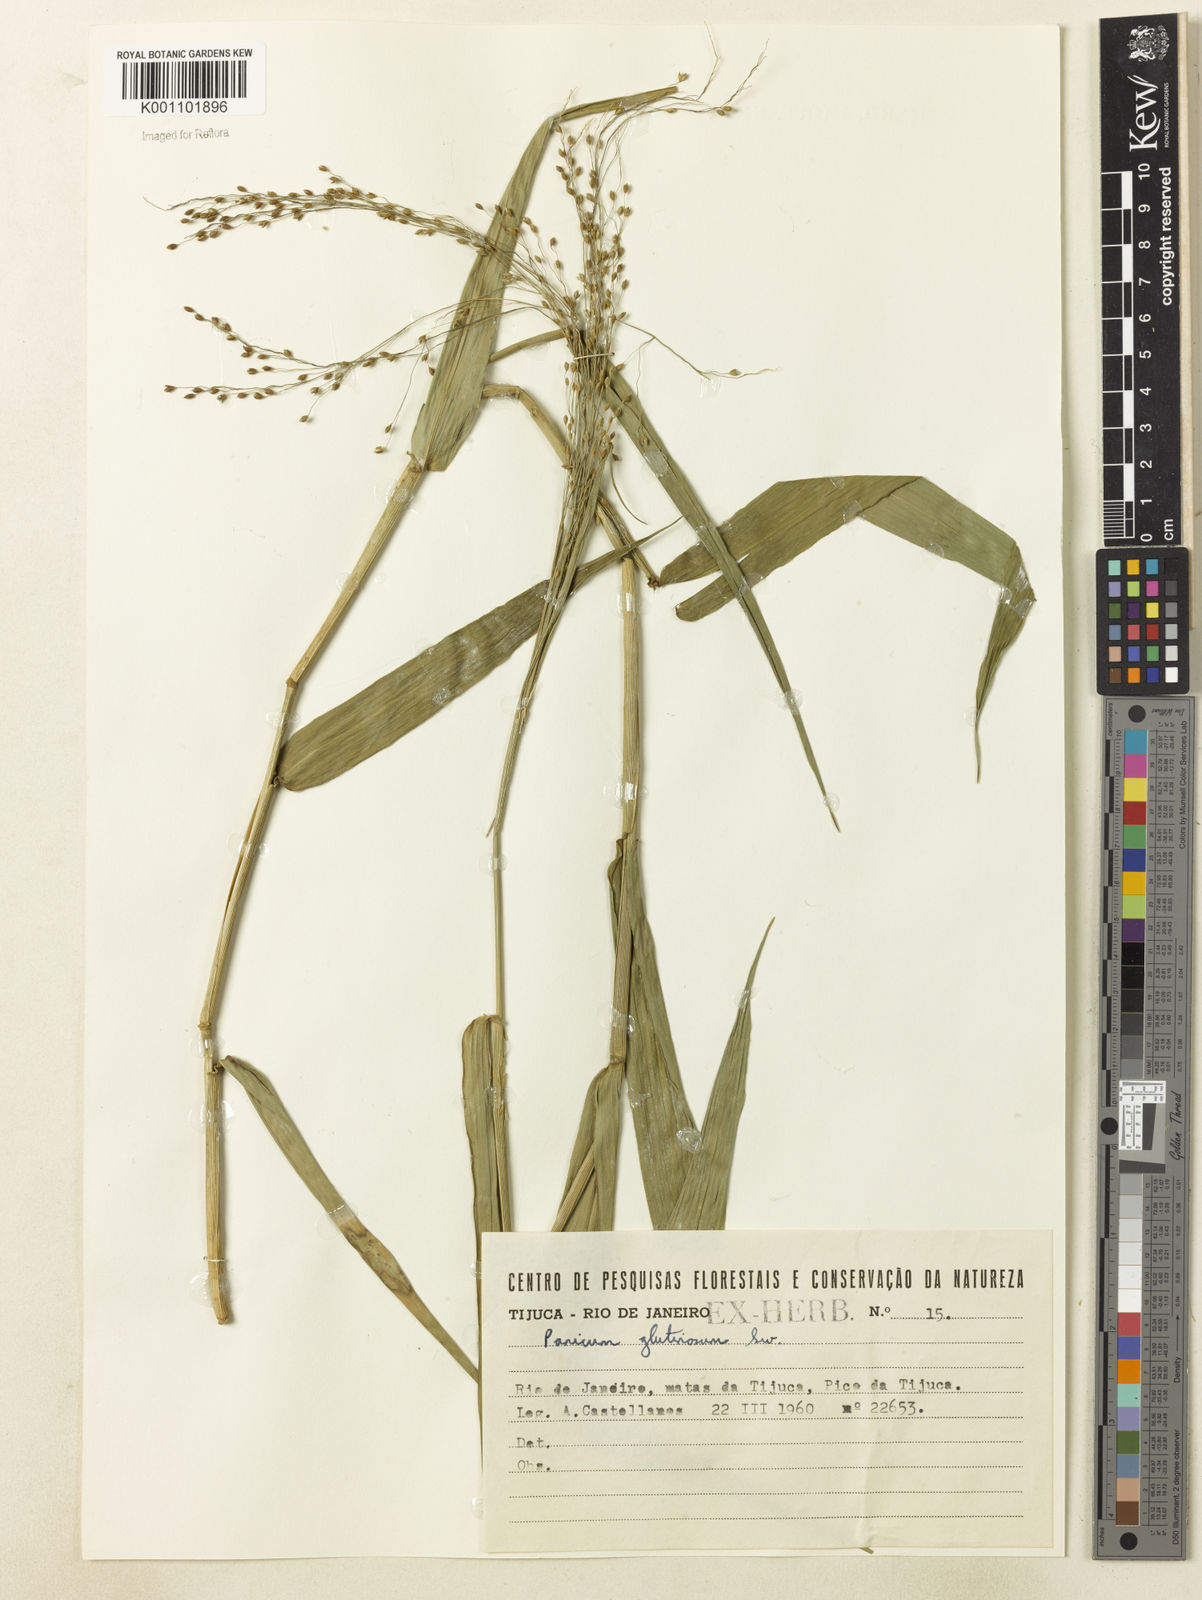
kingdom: Plantae
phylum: Tracheophyta
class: Liliopsida
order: Poales
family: Poaceae
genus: Homolepis
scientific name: Homolepis glutinosa
